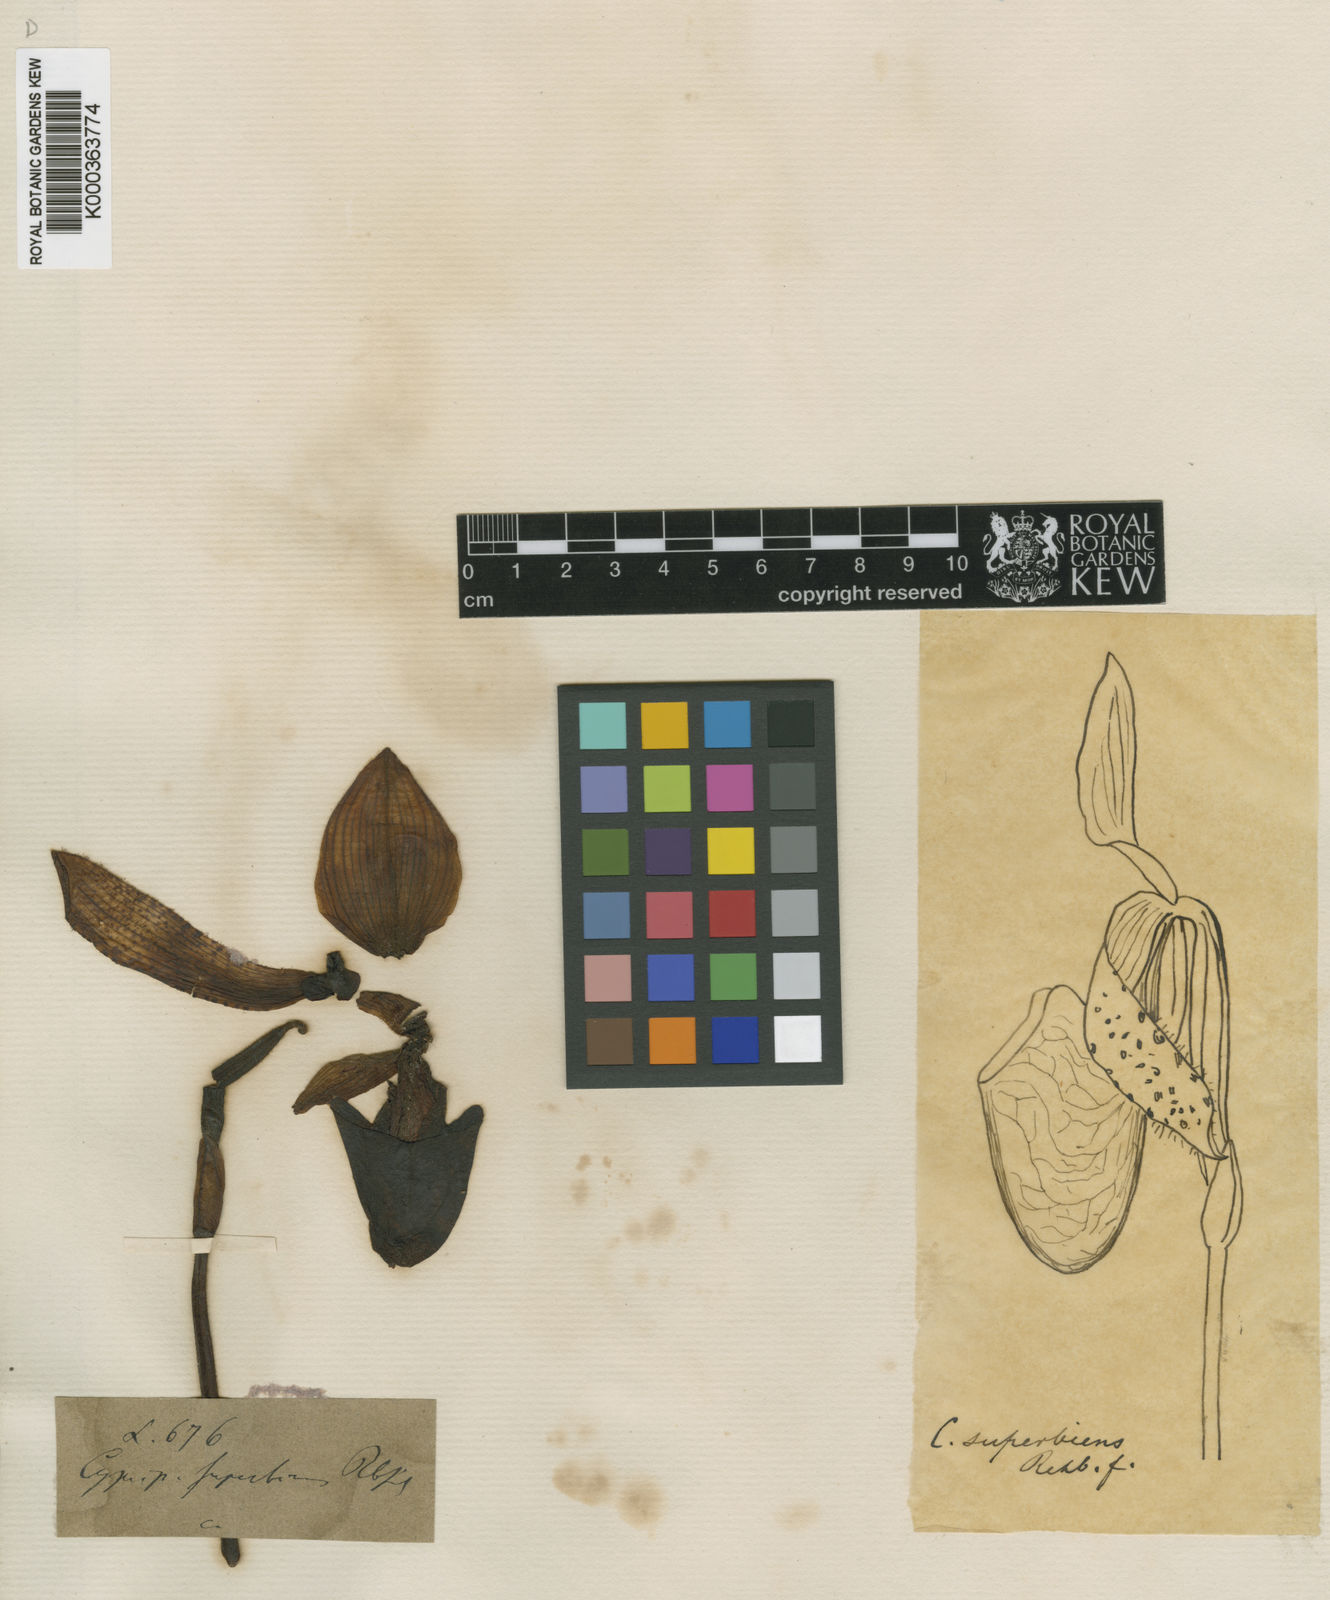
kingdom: Plantae
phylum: Tracheophyta
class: Liliopsida
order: Asparagales
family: Orchidaceae
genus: Paphiopedilum
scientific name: Paphiopedilum superbiens
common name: Outstanding paphiopedilum
